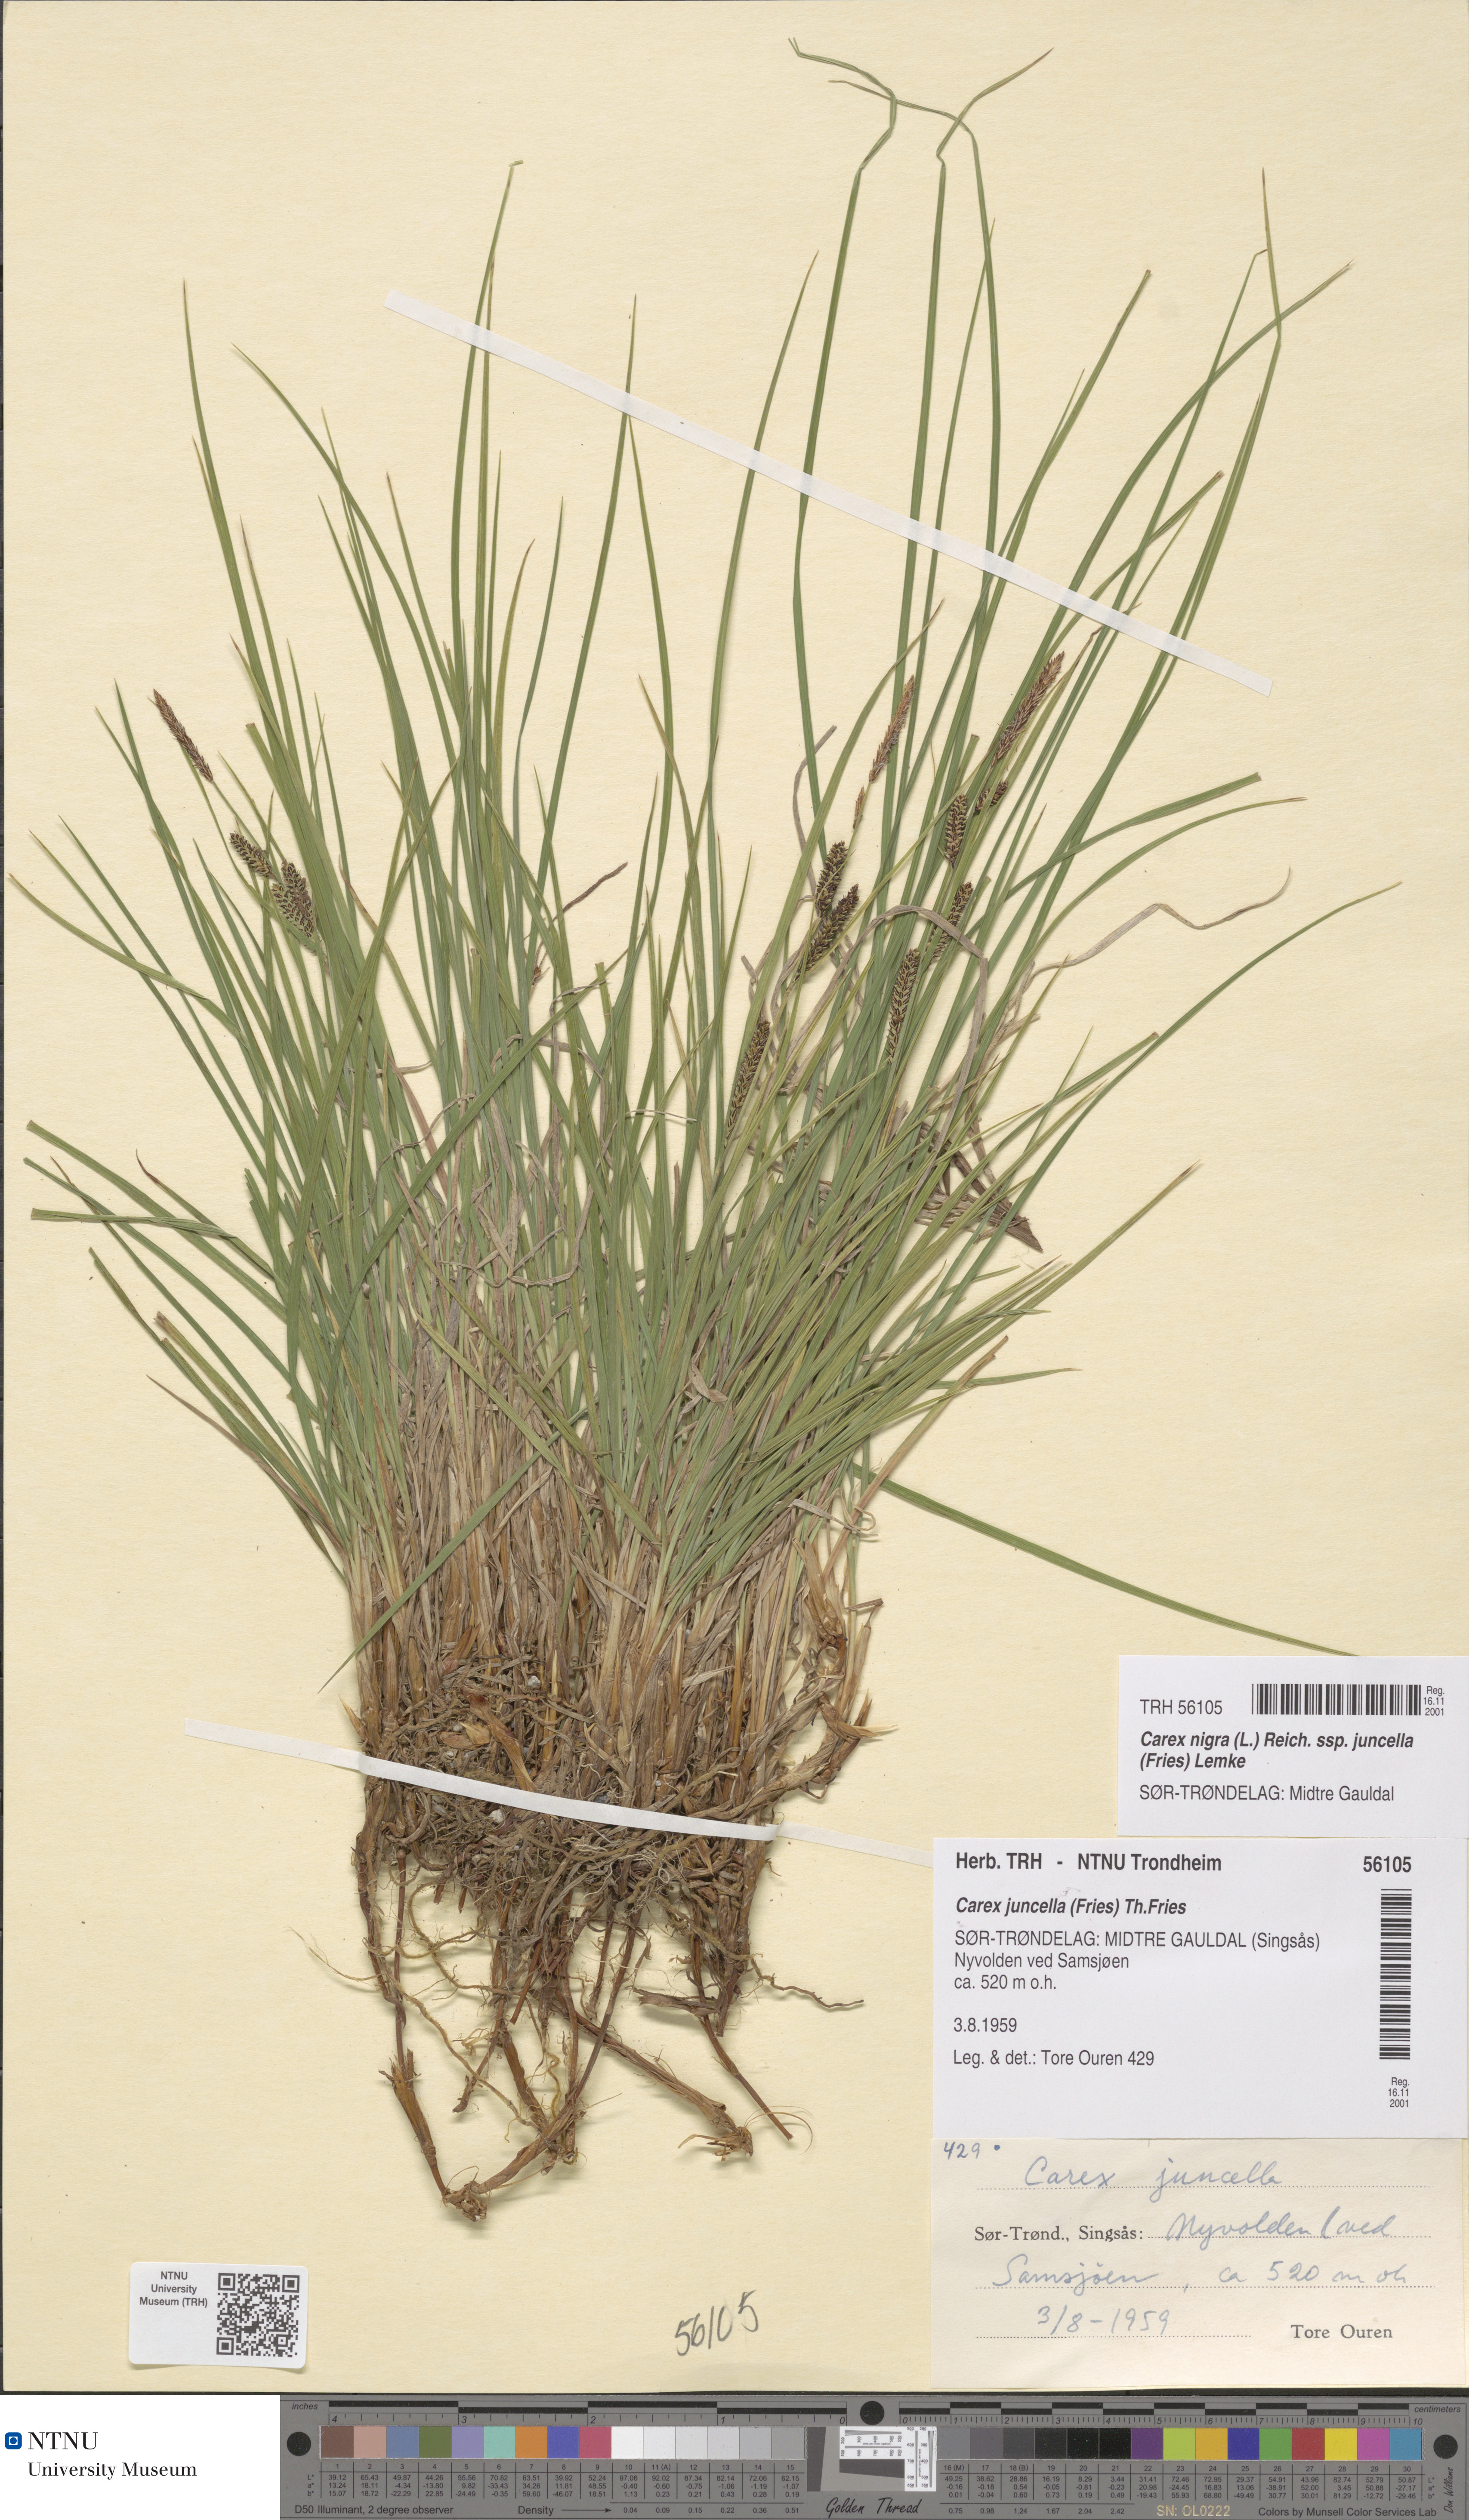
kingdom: Plantae
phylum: Tracheophyta
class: Liliopsida
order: Poales
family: Cyperaceae
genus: Carex
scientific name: Carex nigra
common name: Common sedge
